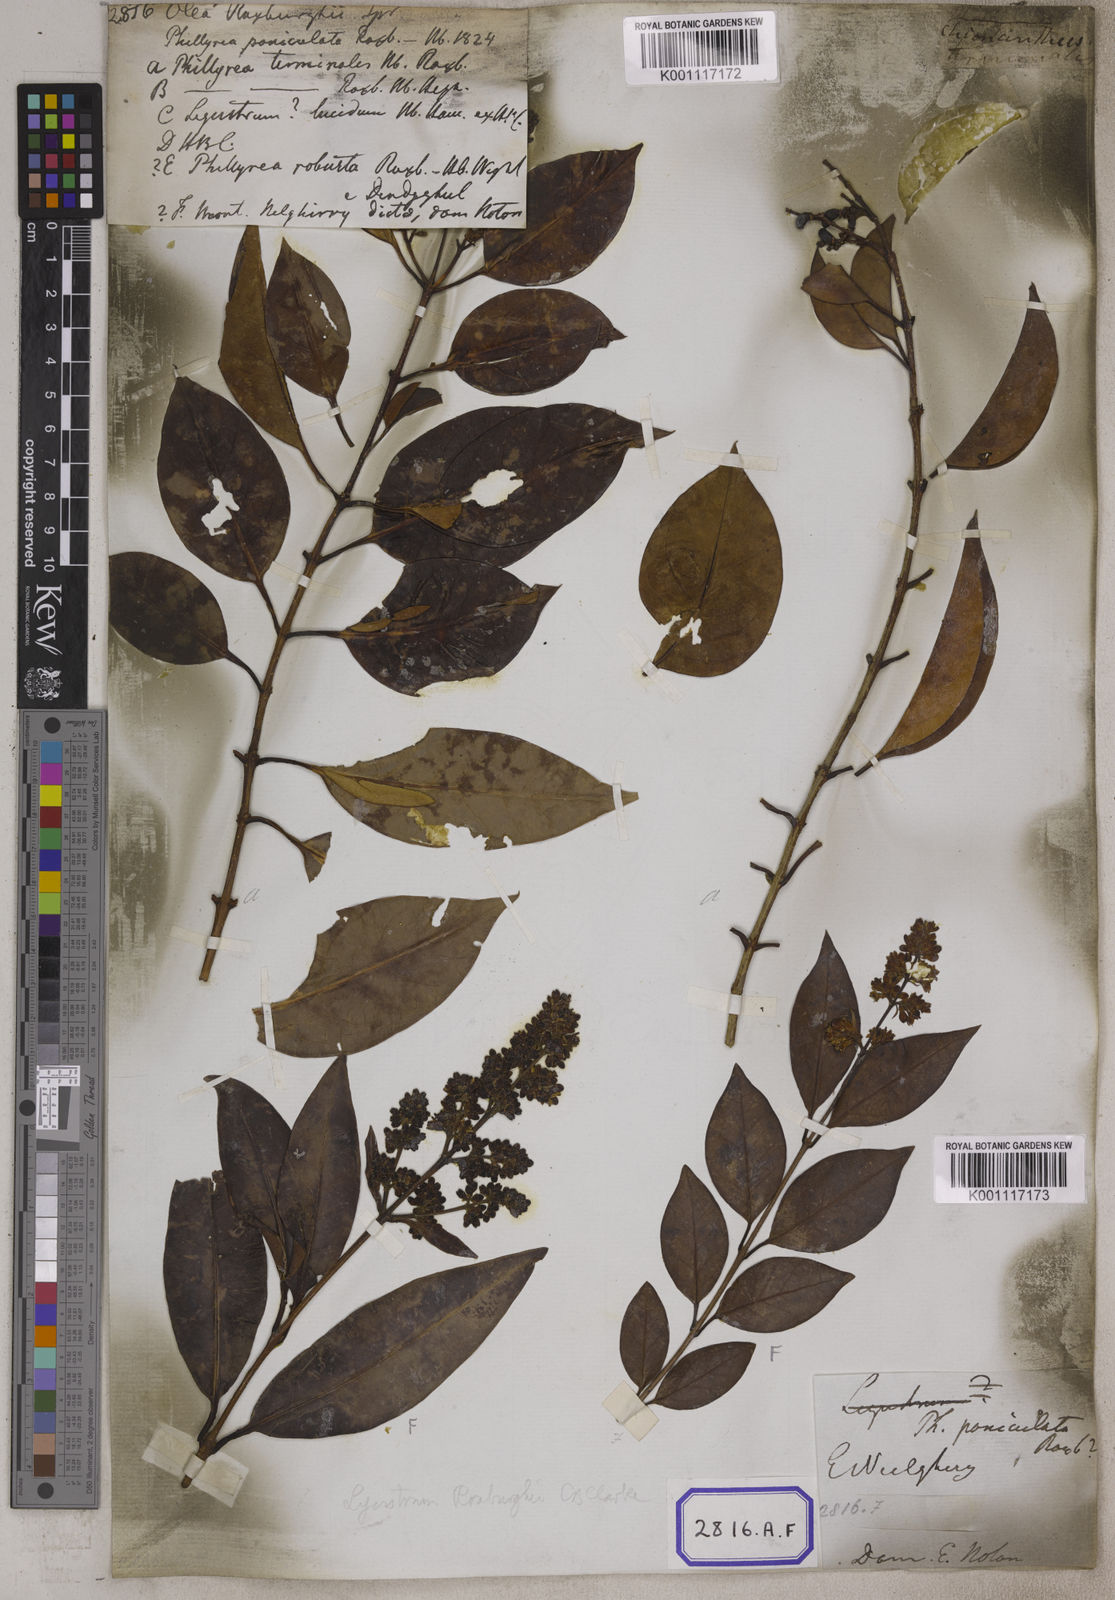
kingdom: Plantae
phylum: Tracheophyta
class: Magnoliopsida
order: Lamiales
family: Oleaceae
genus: Olea
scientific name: Olea
